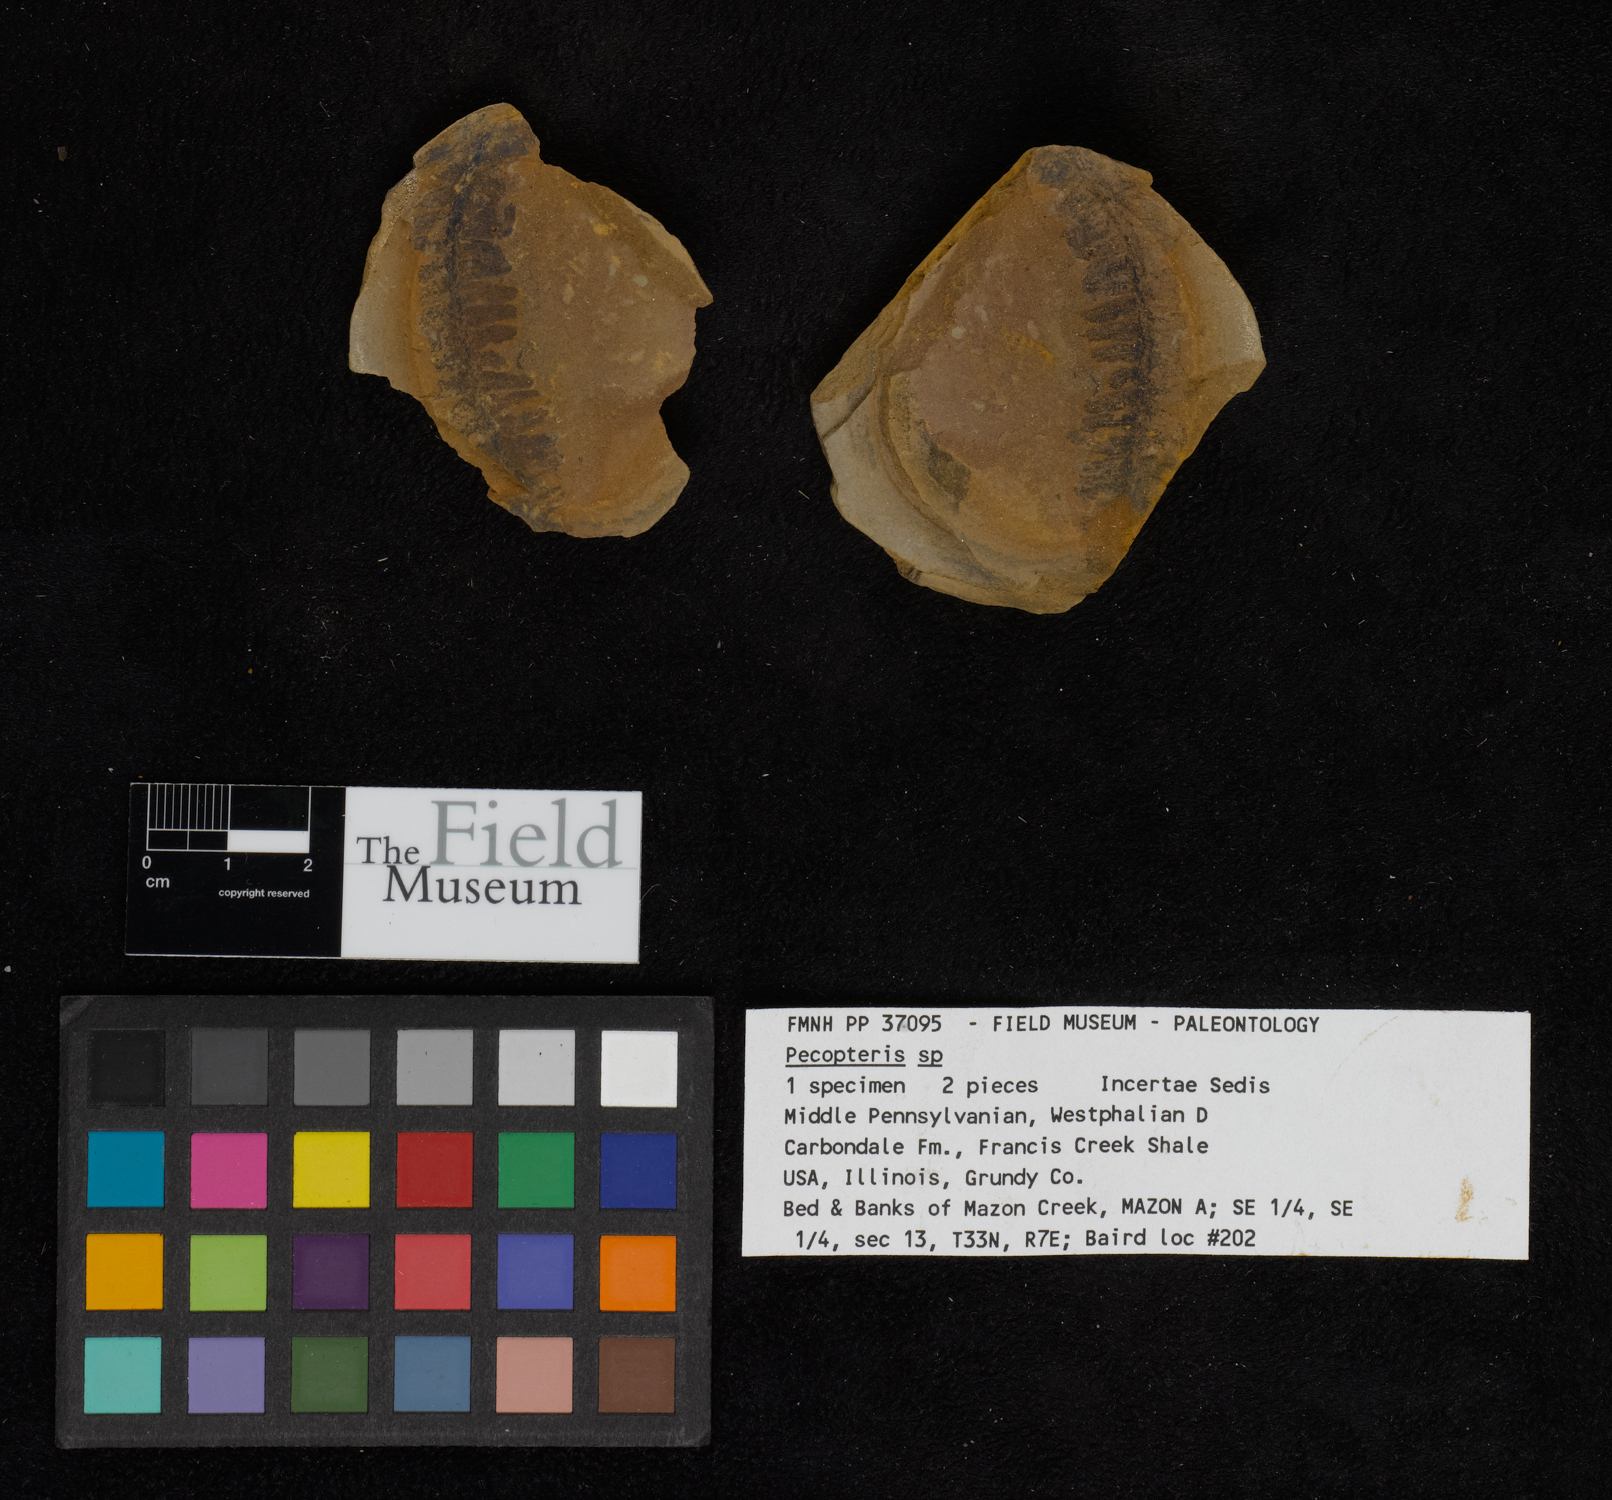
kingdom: Plantae
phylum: Tracheophyta
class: Polypodiopsida
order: Marattiales
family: Asterothecaceae
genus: Pecopteris
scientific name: Pecopteris
